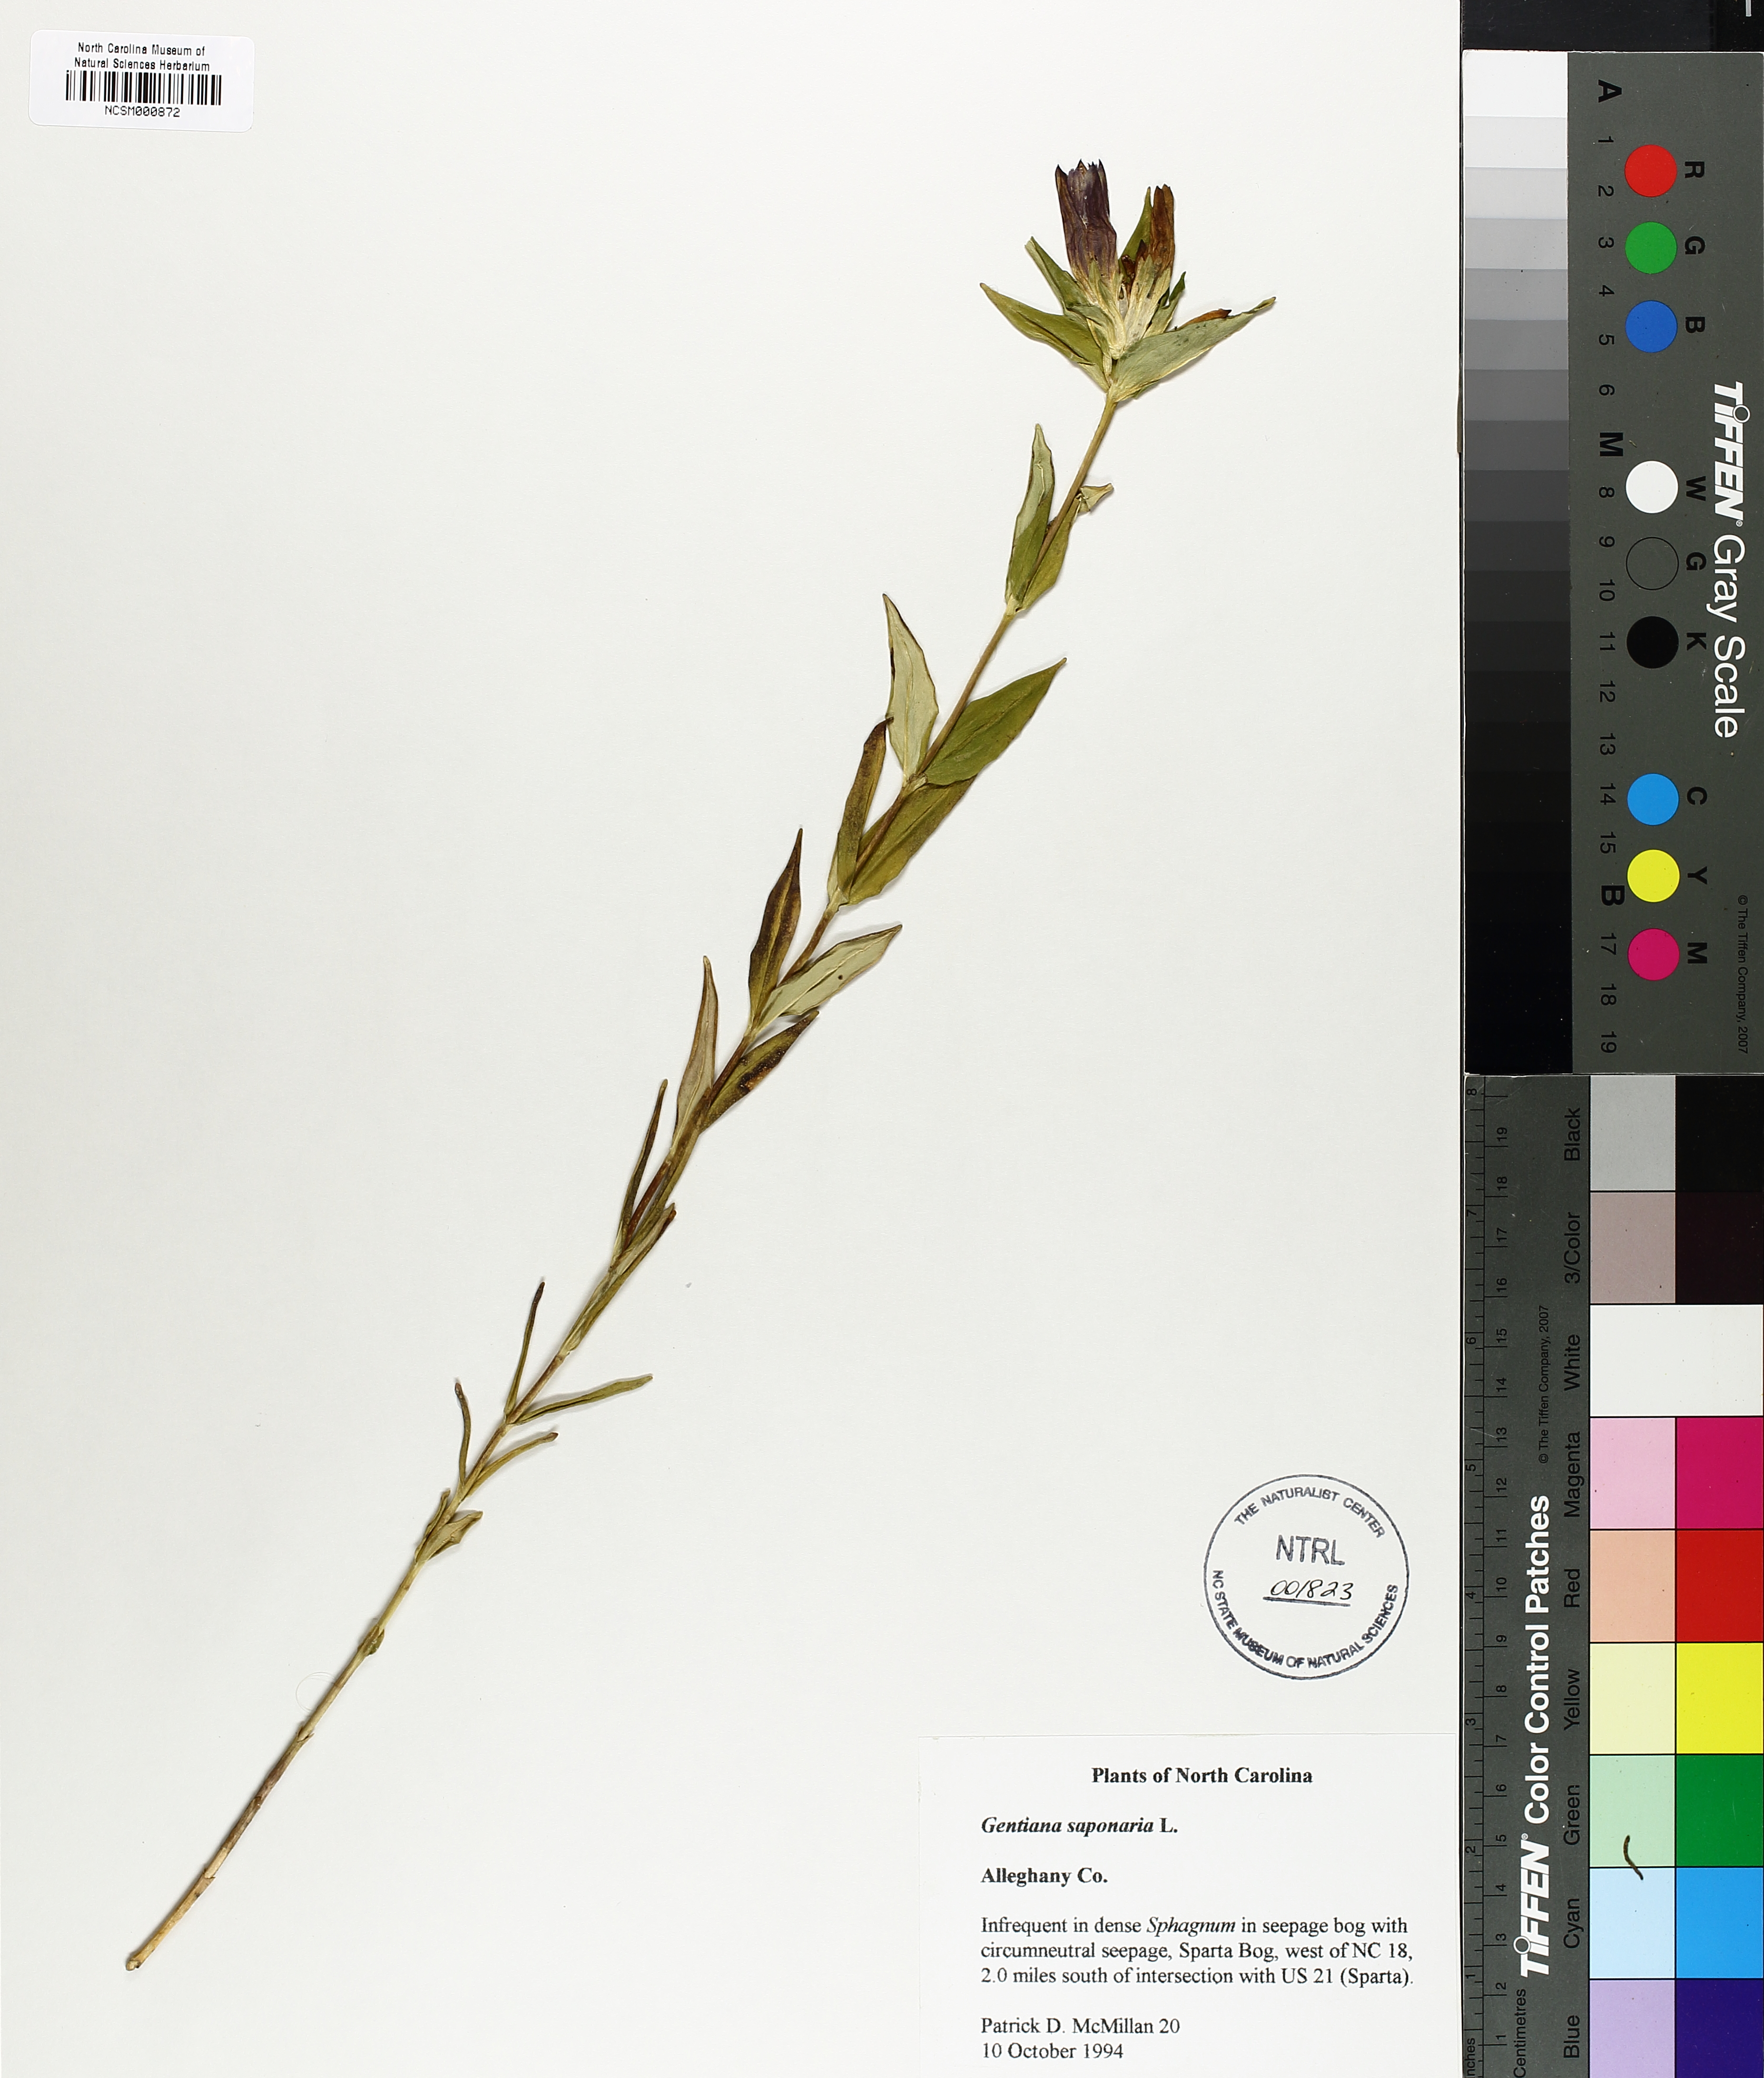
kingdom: Plantae
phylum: Tracheophyta
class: Magnoliopsida
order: Gentianales
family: Gentianaceae
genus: Gentiana
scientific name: Gentiana saponaria
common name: Soapwort gentian
